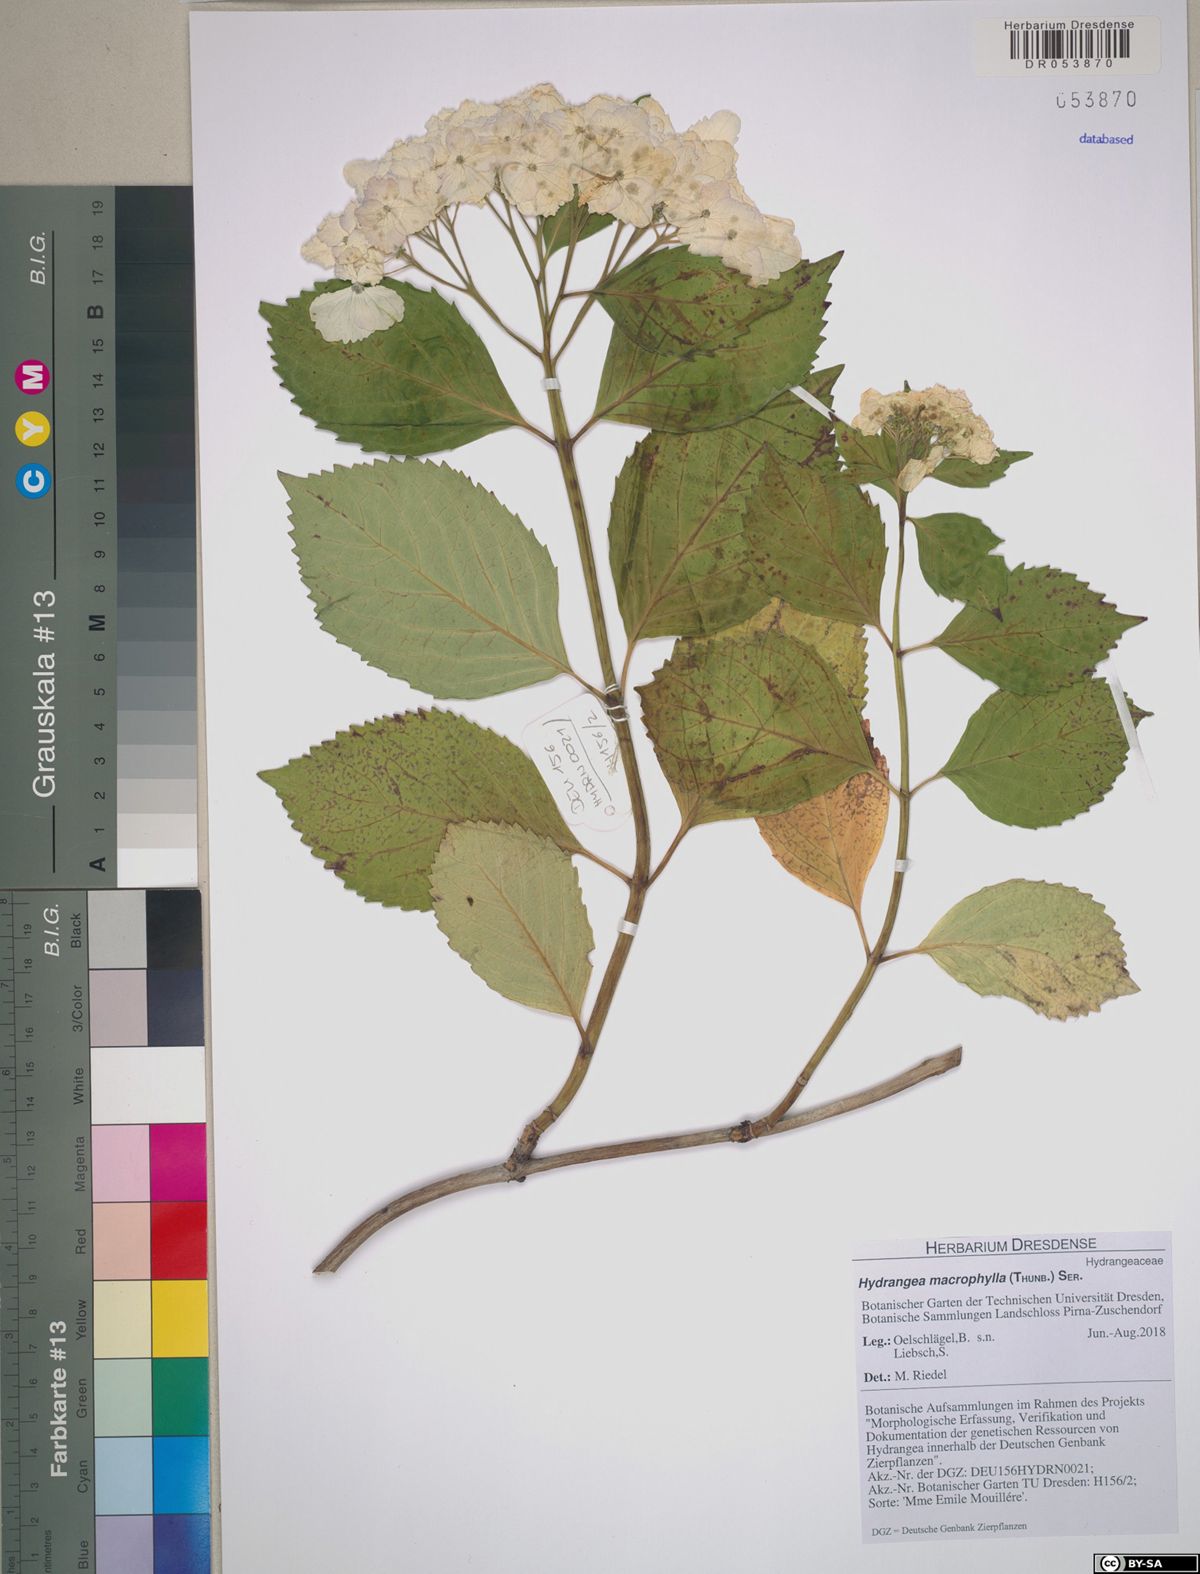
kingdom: Plantae
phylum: Tracheophyta
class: Magnoliopsida
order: Cornales
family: Hydrangeaceae
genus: Hydrangea
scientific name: Hydrangea macrophylla
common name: Hydrangea
